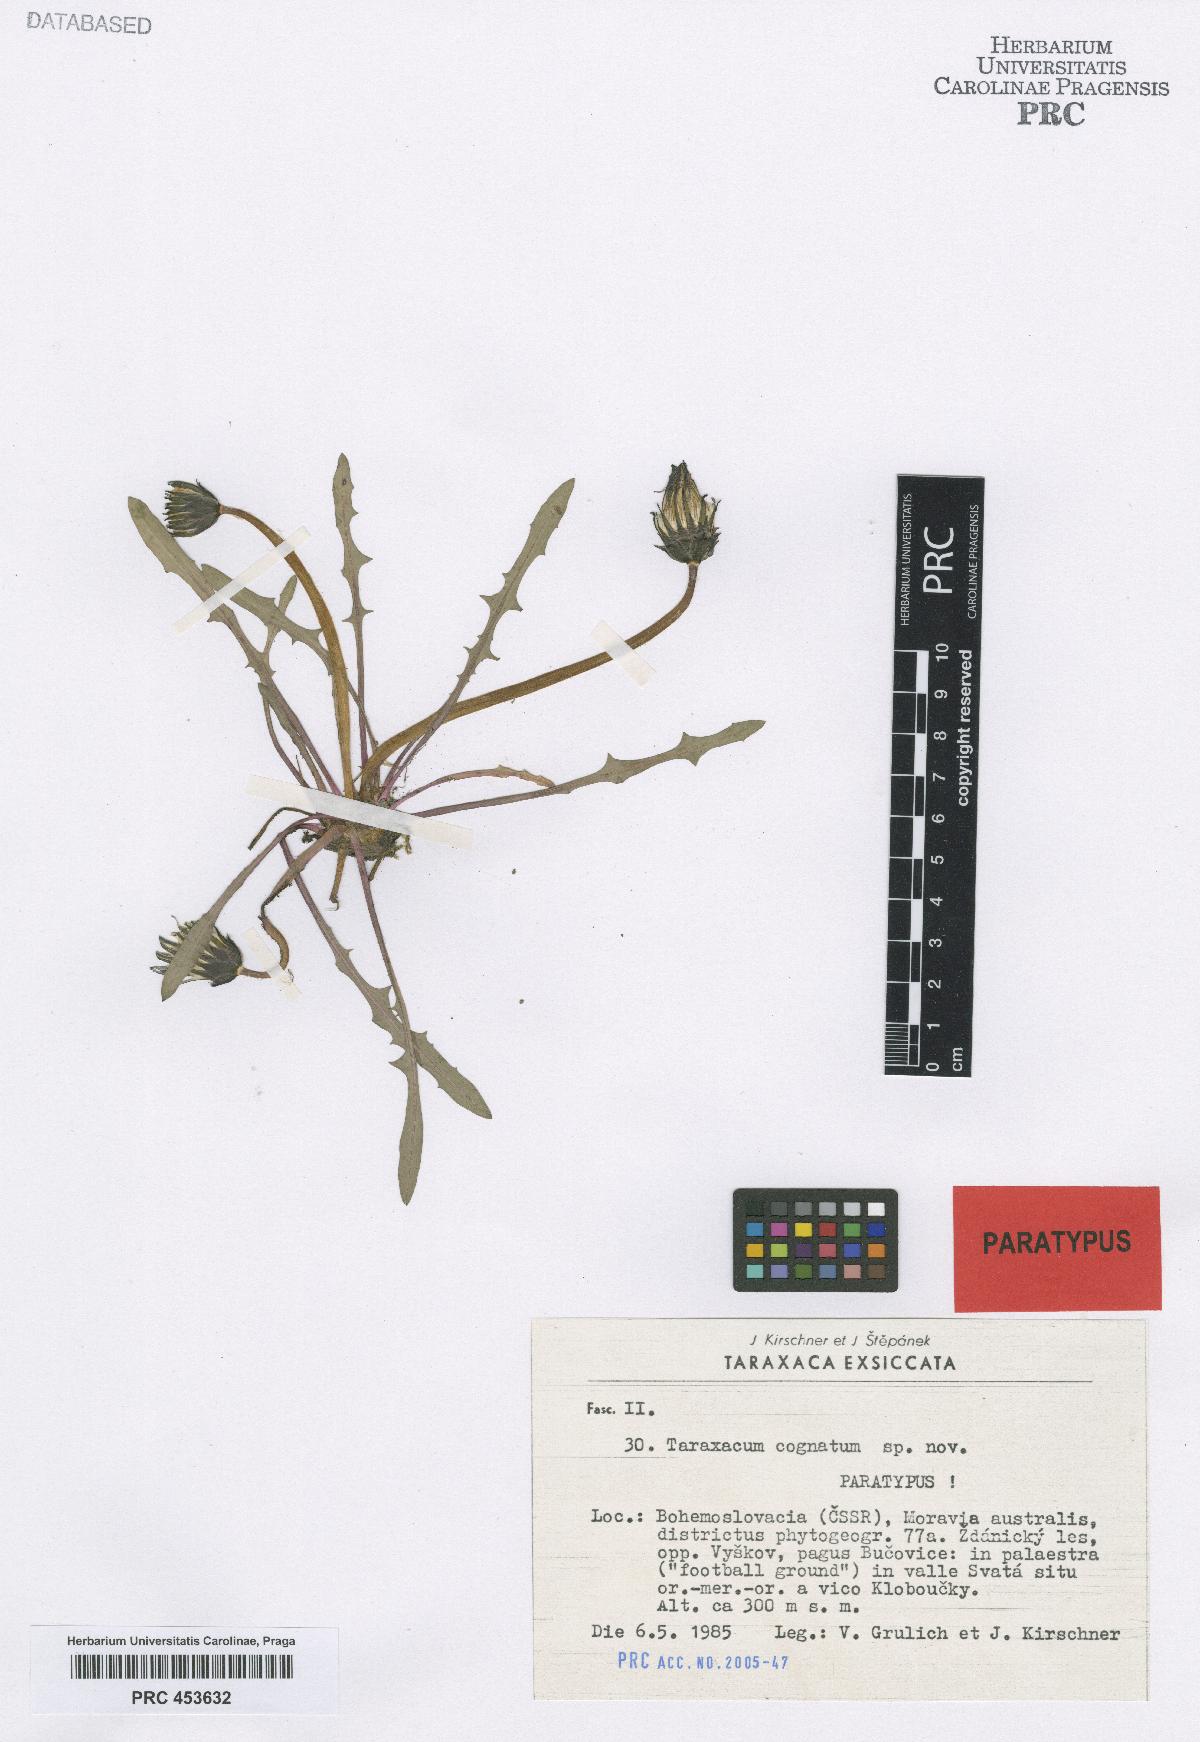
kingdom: Plantae
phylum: Tracheophyta
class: Magnoliopsida
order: Asterales
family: Asteraceae
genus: Taraxacum
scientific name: Taraxacum cognatum
